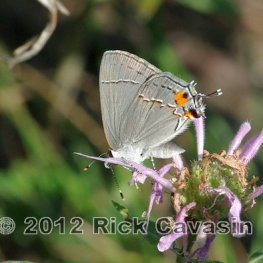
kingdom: Animalia
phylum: Arthropoda
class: Insecta
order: Lepidoptera
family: Lycaenidae
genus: Strymon
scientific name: Strymon melinus
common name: Gray Hairstreak
